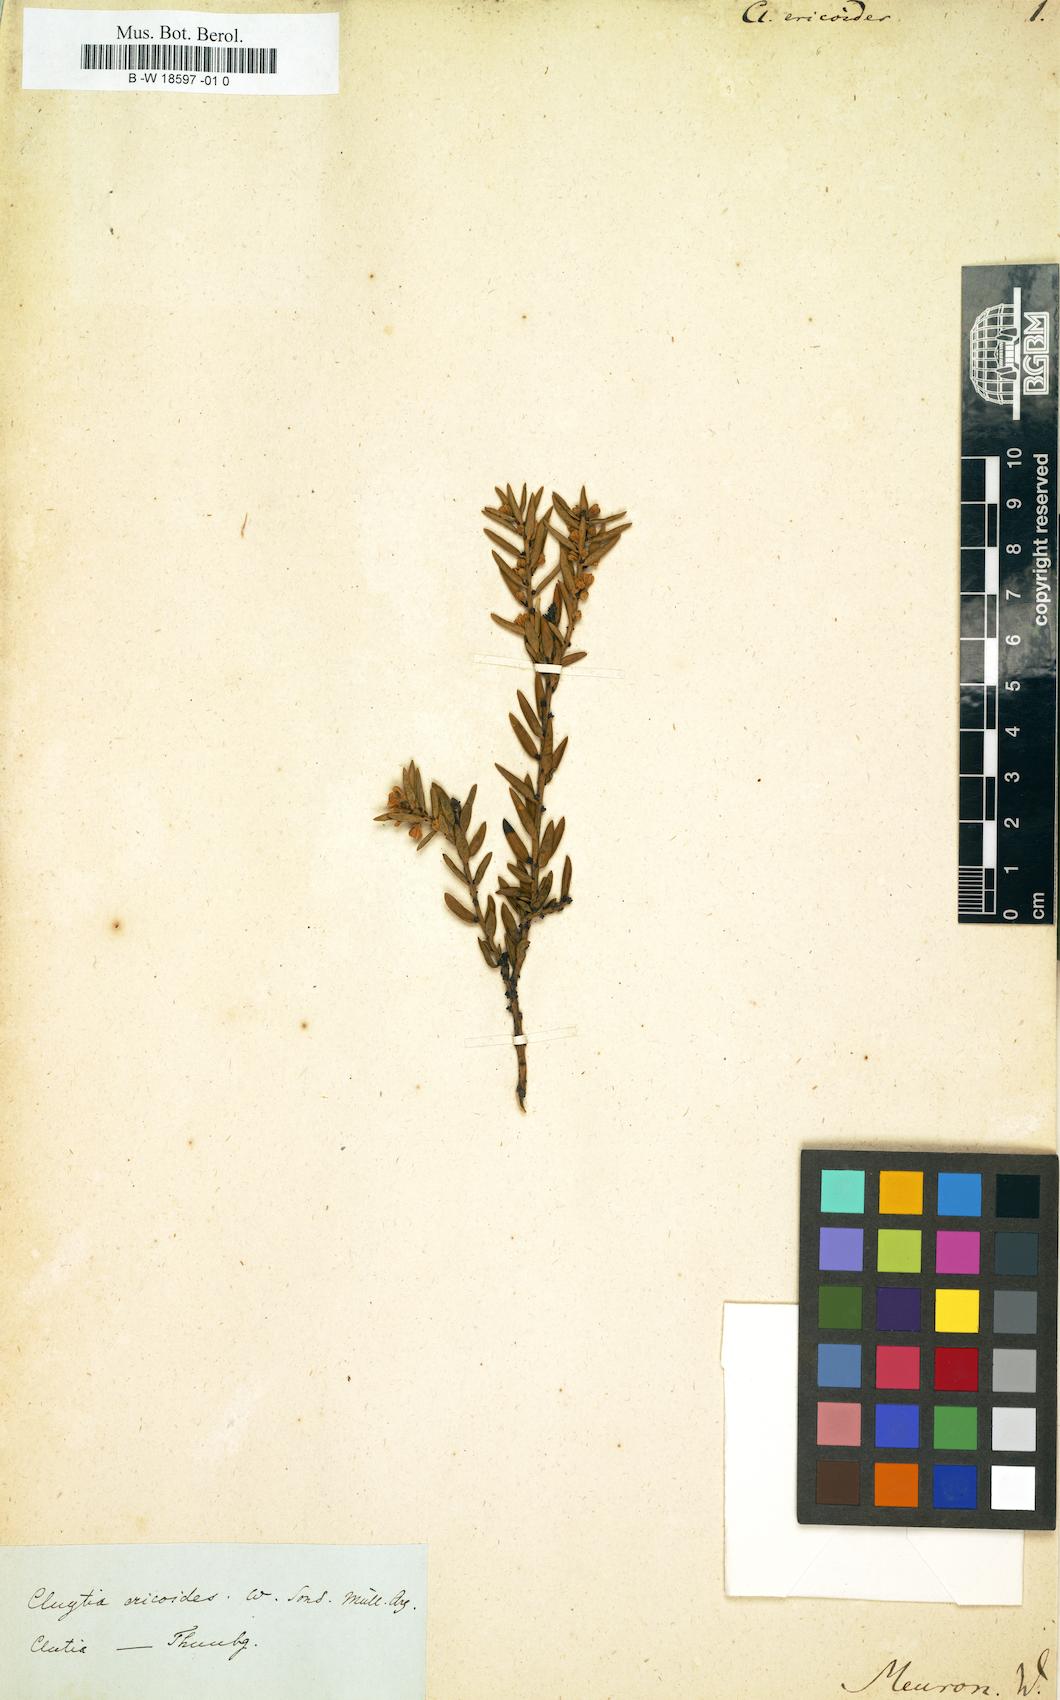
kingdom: Plantae
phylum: Tracheophyta
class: Magnoliopsida
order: Malpighiales
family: Peraceae
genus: Clutia
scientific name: Clutia
